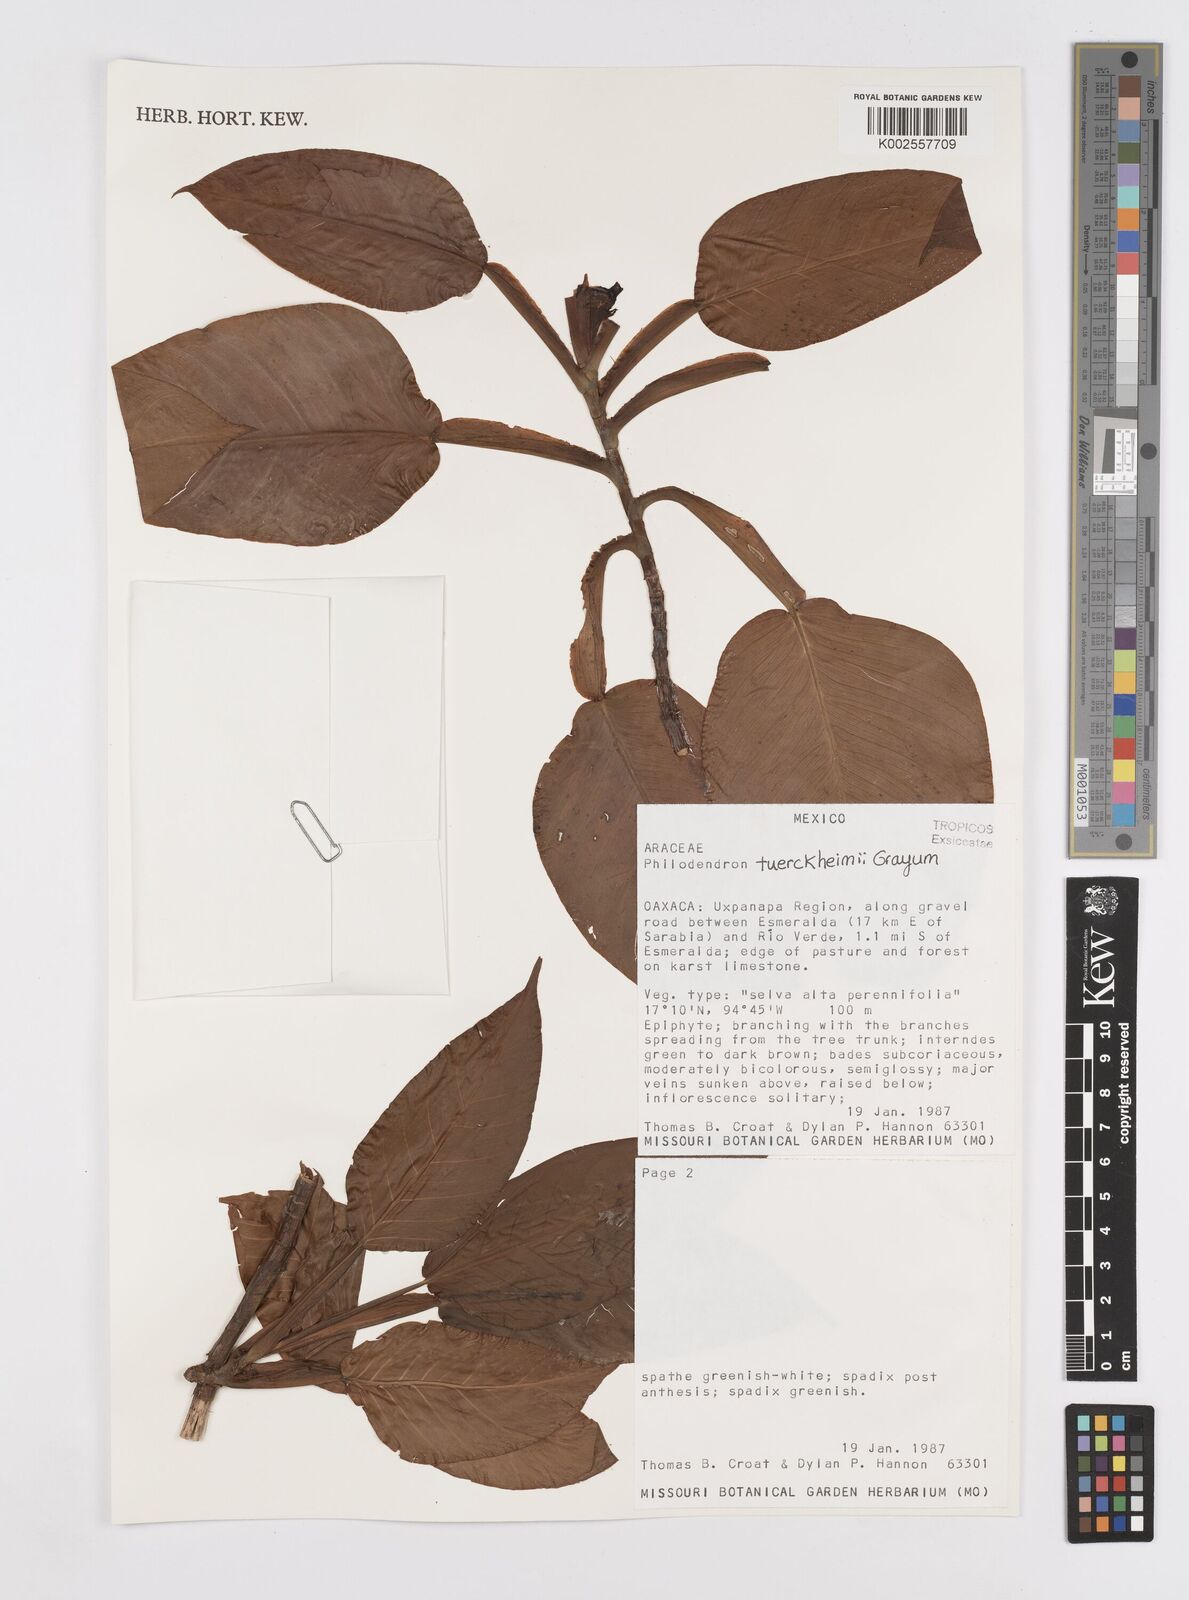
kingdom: Plantae
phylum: Tracheophyta
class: Liliopsida
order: Alismatales
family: Araceae
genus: Philodendron
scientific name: Philodendron tuerckheimii
